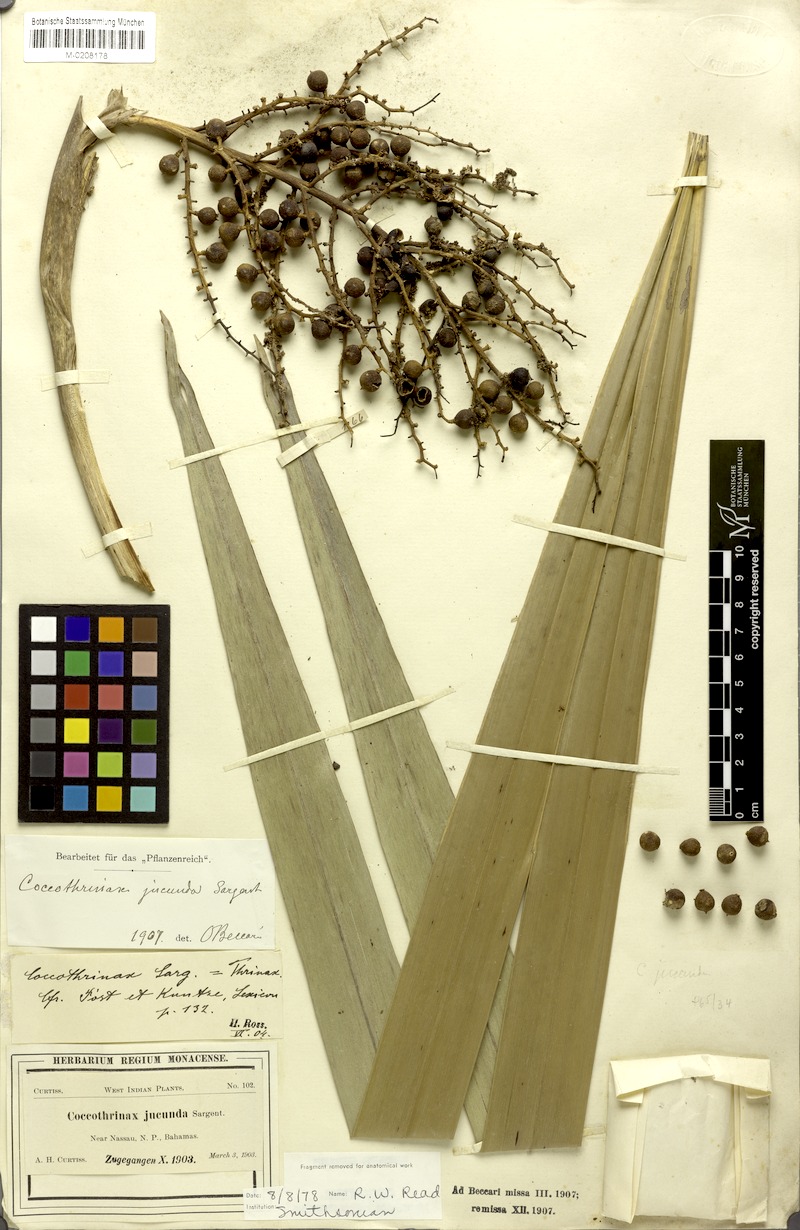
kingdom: Plantae
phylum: Tracheophyta
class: Liliopsida
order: Arecales
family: Arecaceae
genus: Coccothrinax
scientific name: Coccothrinax argentata
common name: Florida silver palm
